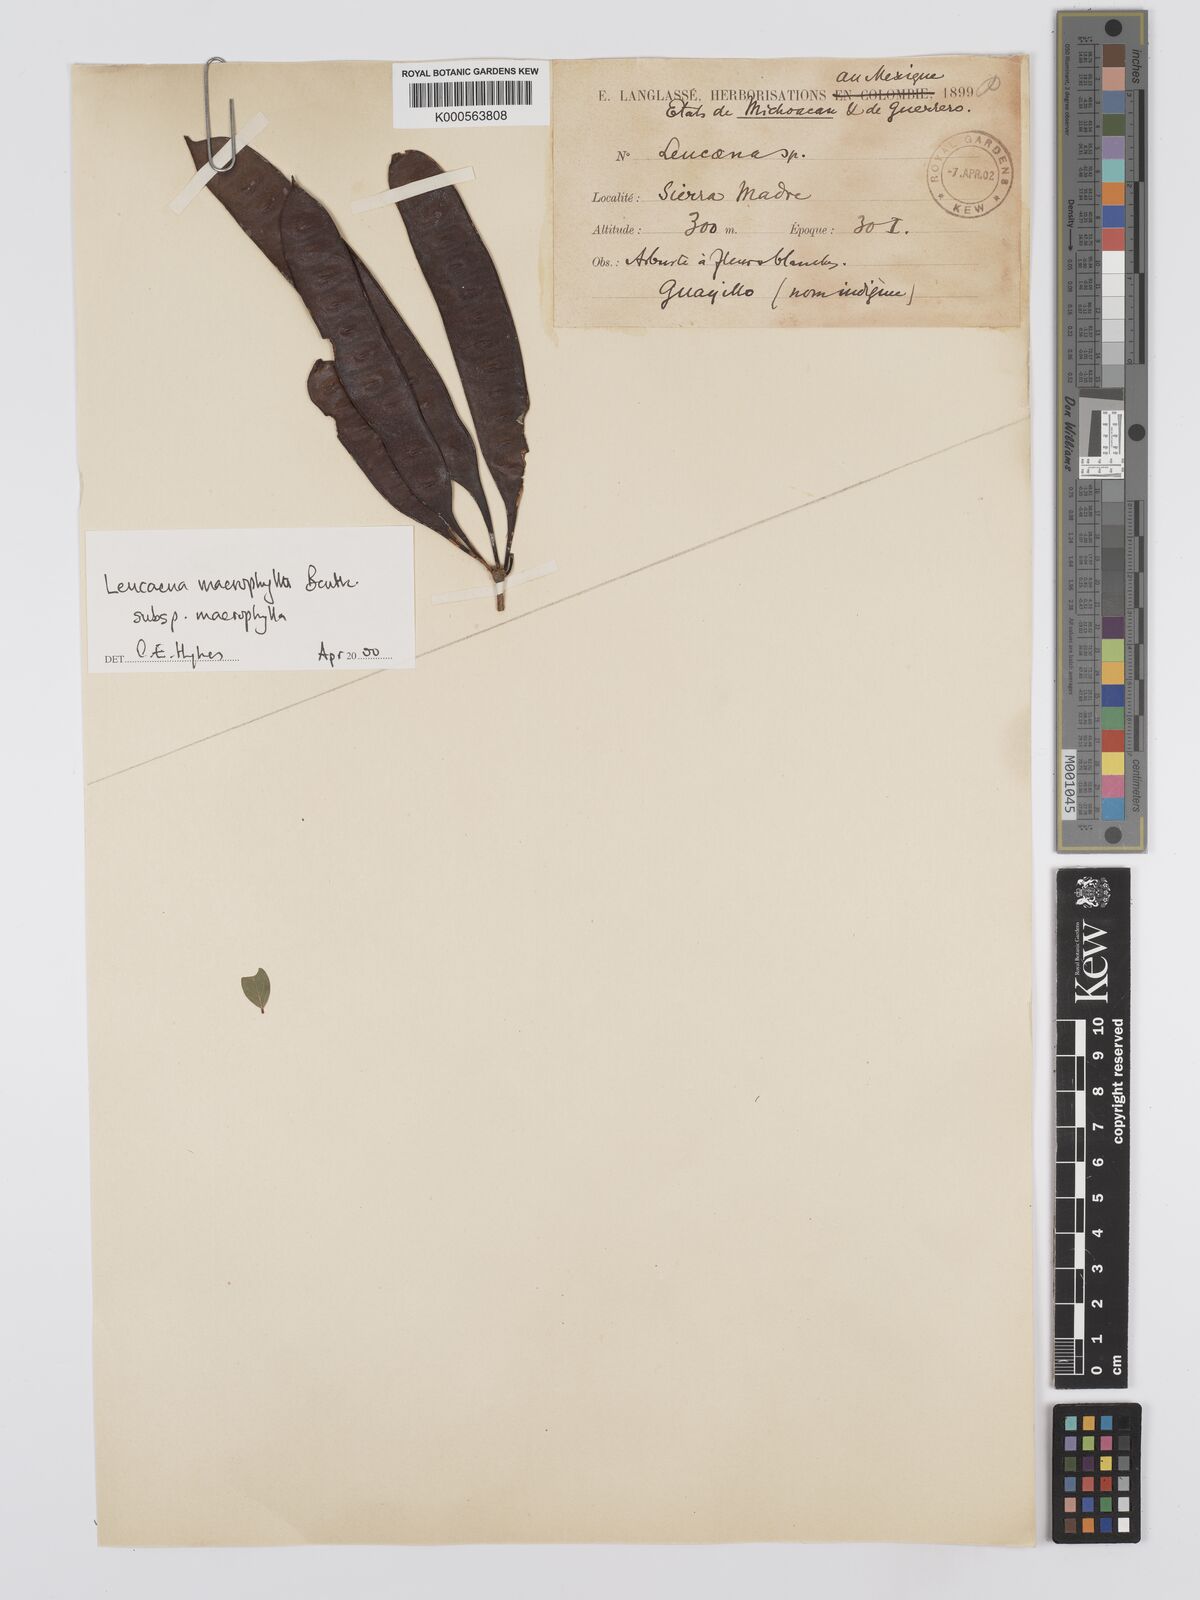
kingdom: Plantae
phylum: Tracheophyta
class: Magnoliopsida
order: Fabales
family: Fabaceae
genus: Leucaena
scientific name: Leucaena macrophylla
